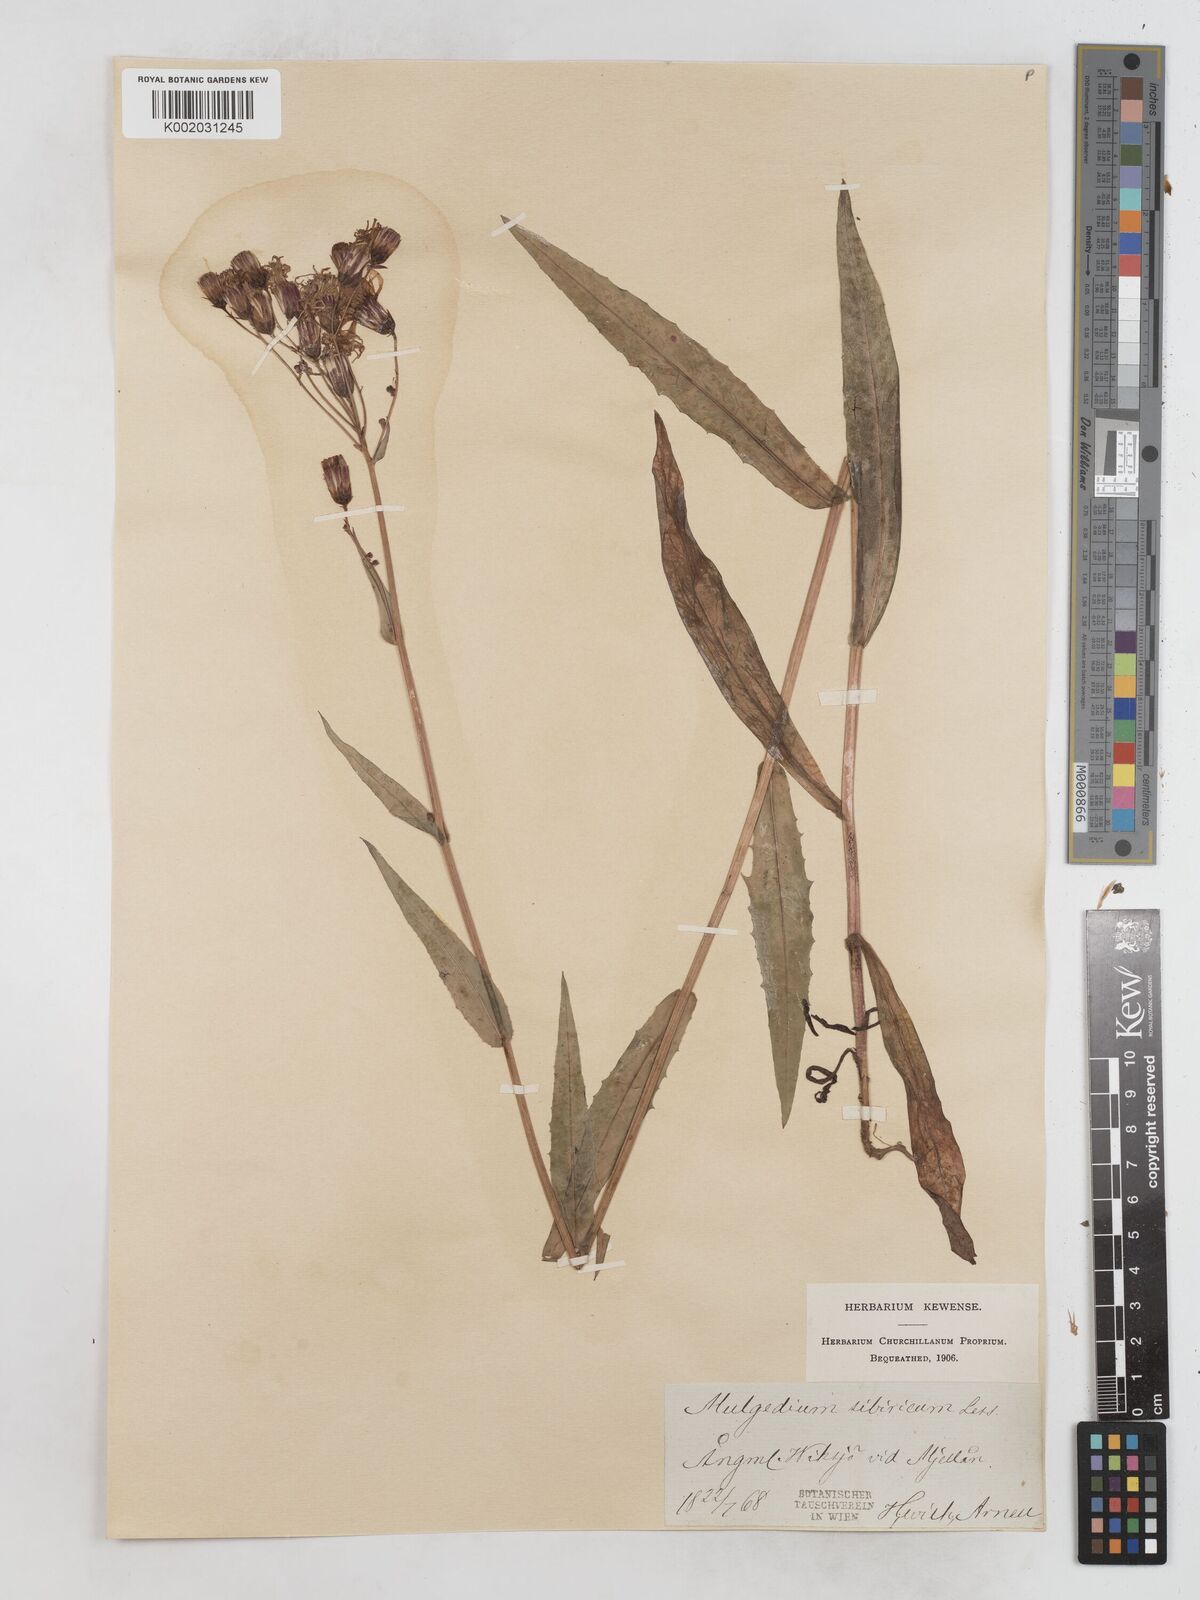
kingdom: Plantae
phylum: Tracheophyta
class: Magnoliopsida
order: Asterales
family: Asteraceae
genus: Lactuca
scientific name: Lactuca sibirica
